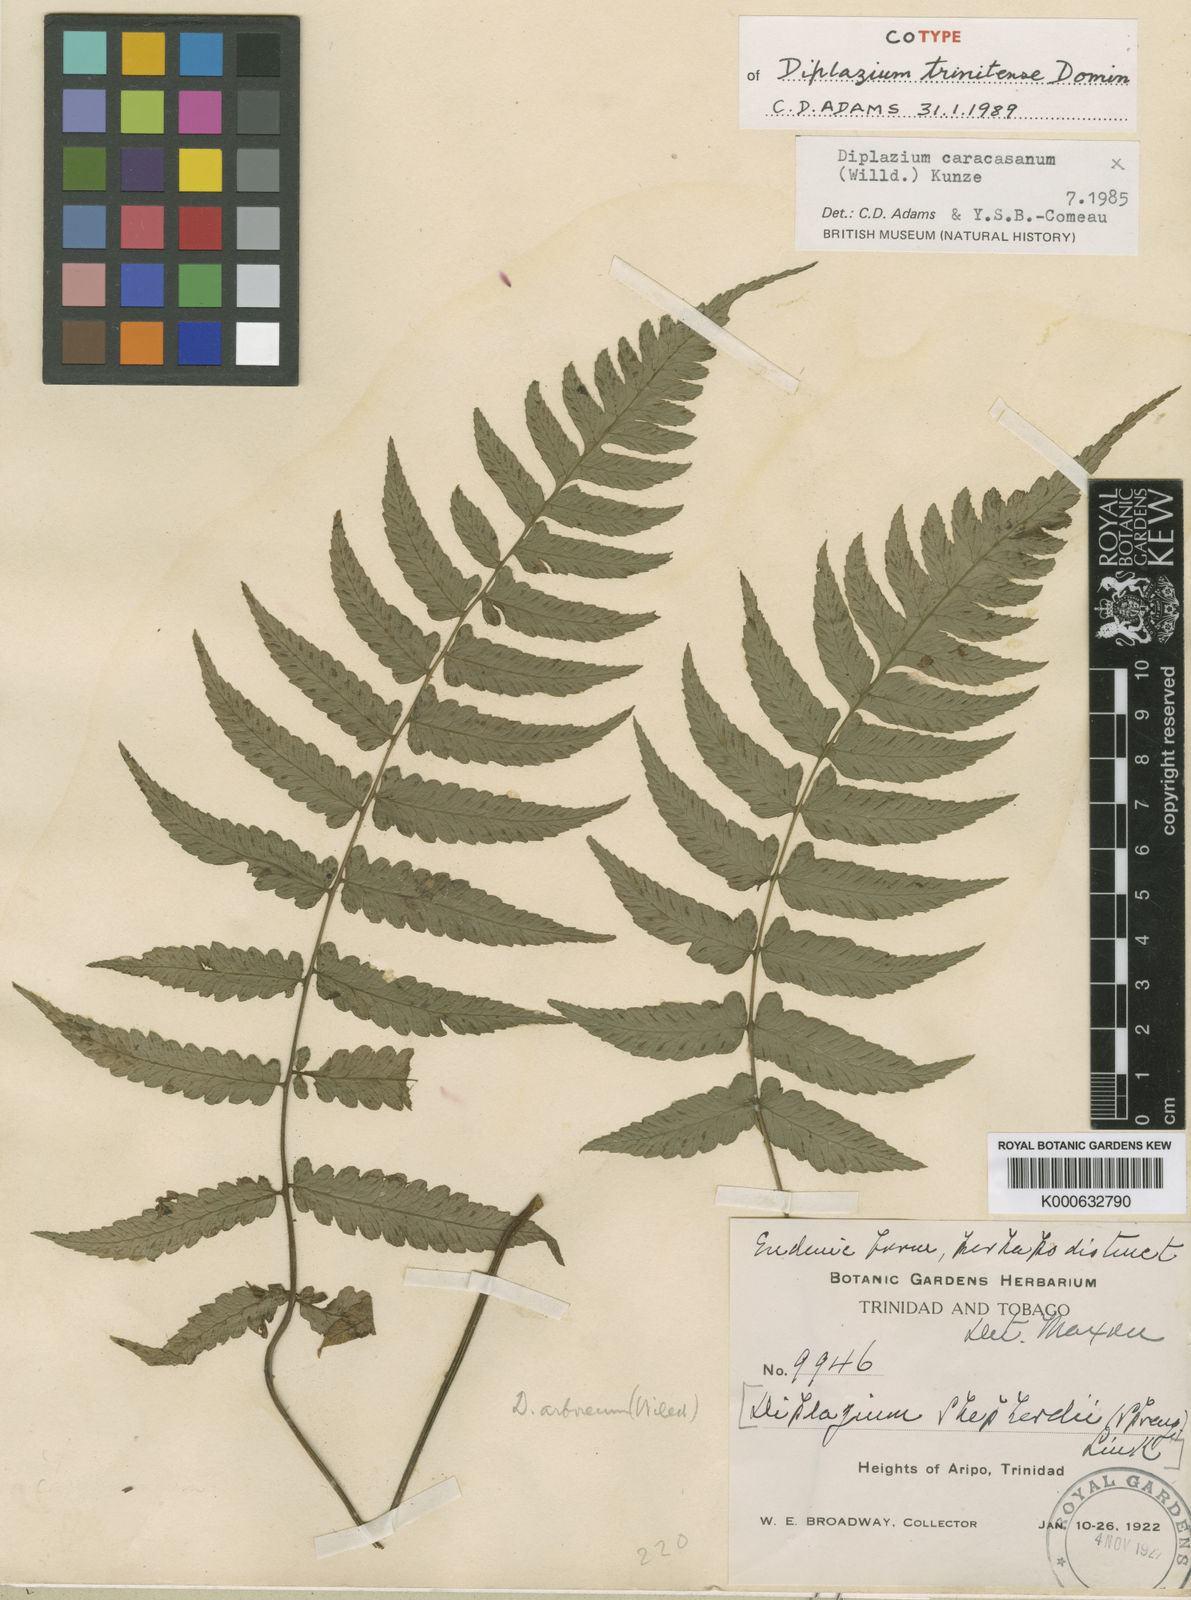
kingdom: Plantae
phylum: Tracheophyta
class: Polypodiopsida
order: Polypodiales
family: Athyriaceae
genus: Diplazium
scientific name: Diplazium caracasanum
